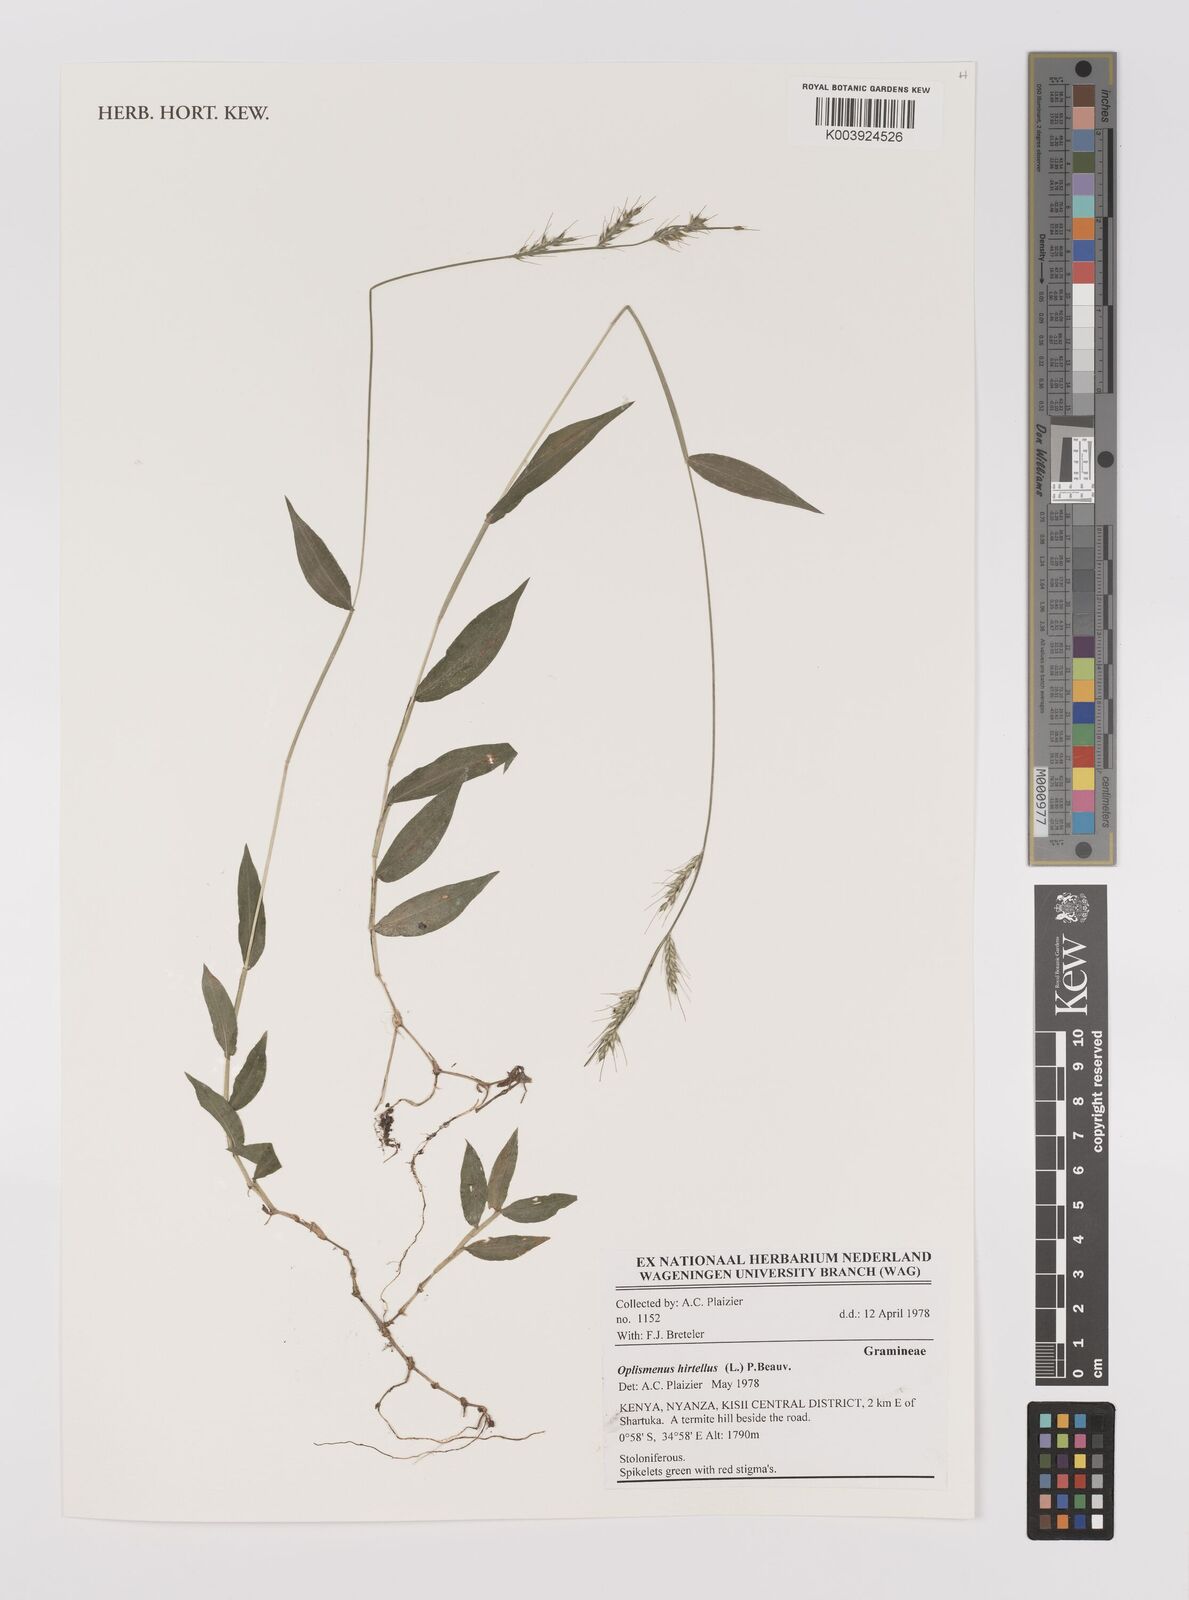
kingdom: Plantae
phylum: Tracheophyta
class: Liliopsida
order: Poales
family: Poaceae
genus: Oplismenus
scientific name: Oplismenus hirtellus
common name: Basketgrass
